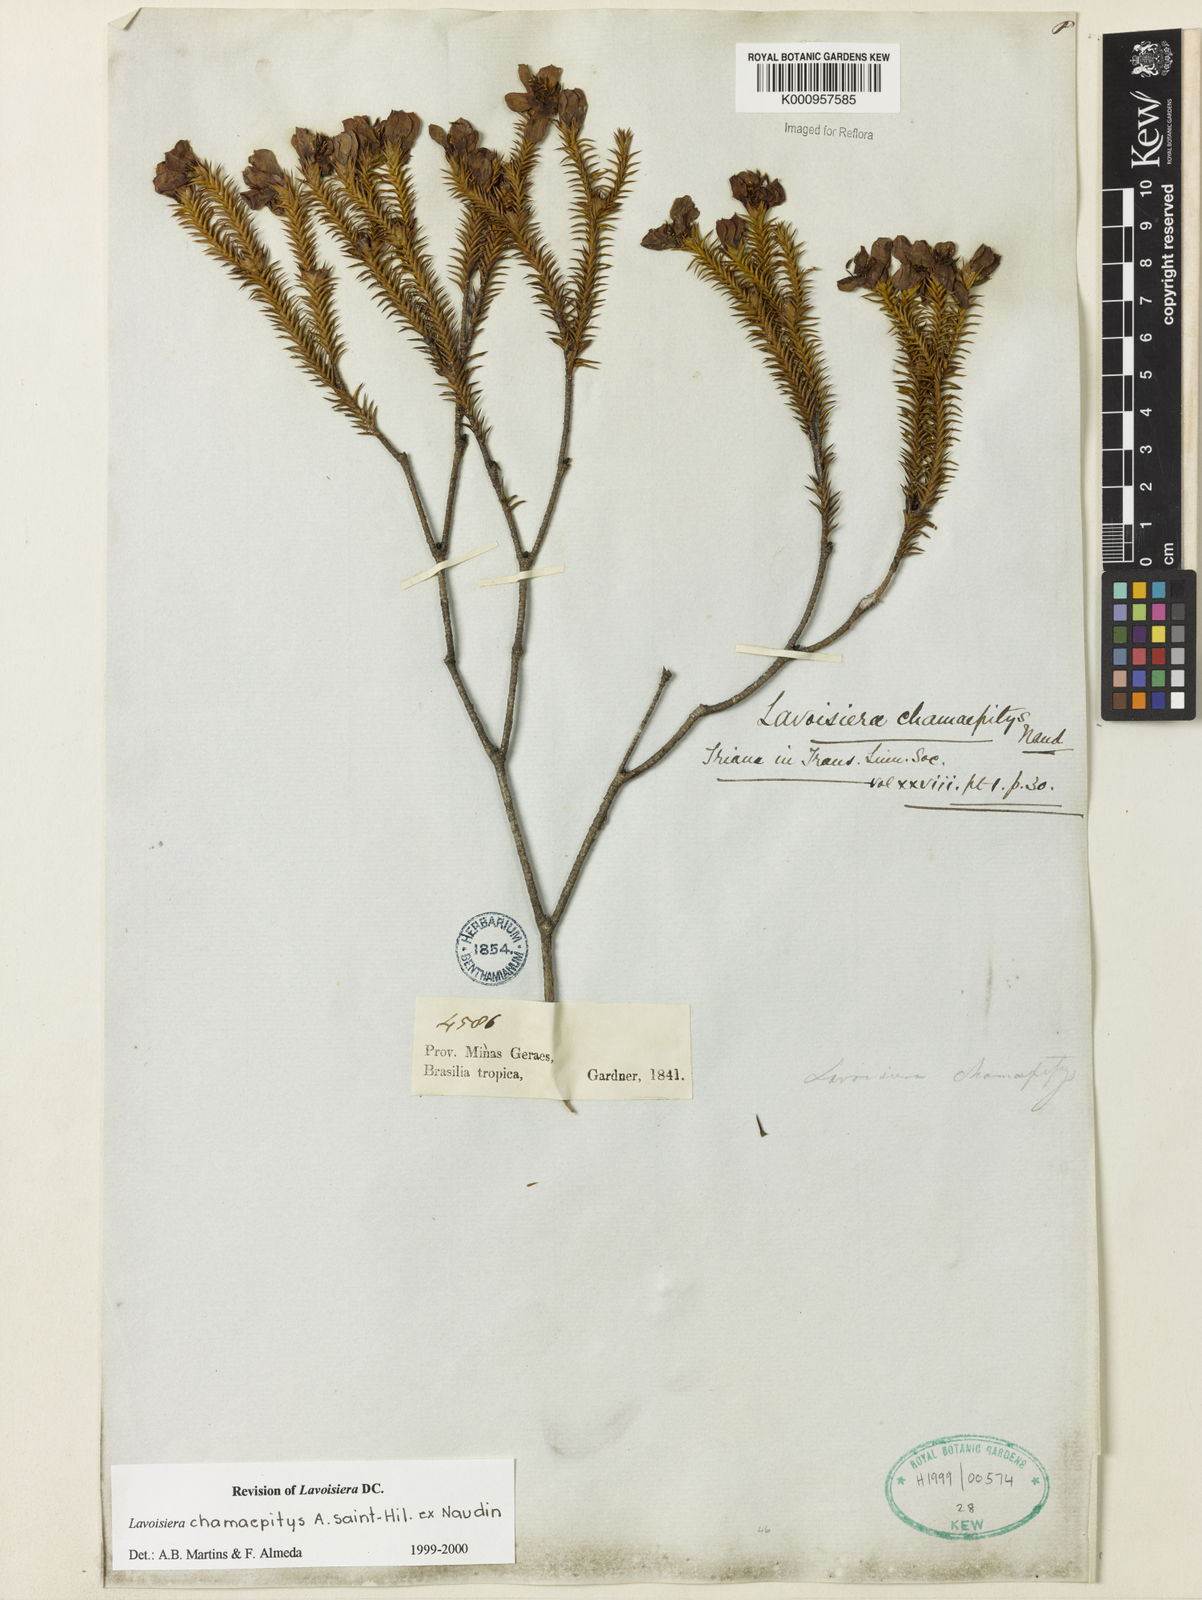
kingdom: Plantae
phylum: Tracheophyta
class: Magnoliopsida
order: Myrtales
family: Melastomataceae
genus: Microlicia
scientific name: Microlicia hilairei
